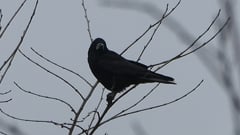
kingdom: Animalia
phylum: Chordata
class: Aves
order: Passeriformes
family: Corvidae
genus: Corvus
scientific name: Corvus frugilegus
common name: Rook
